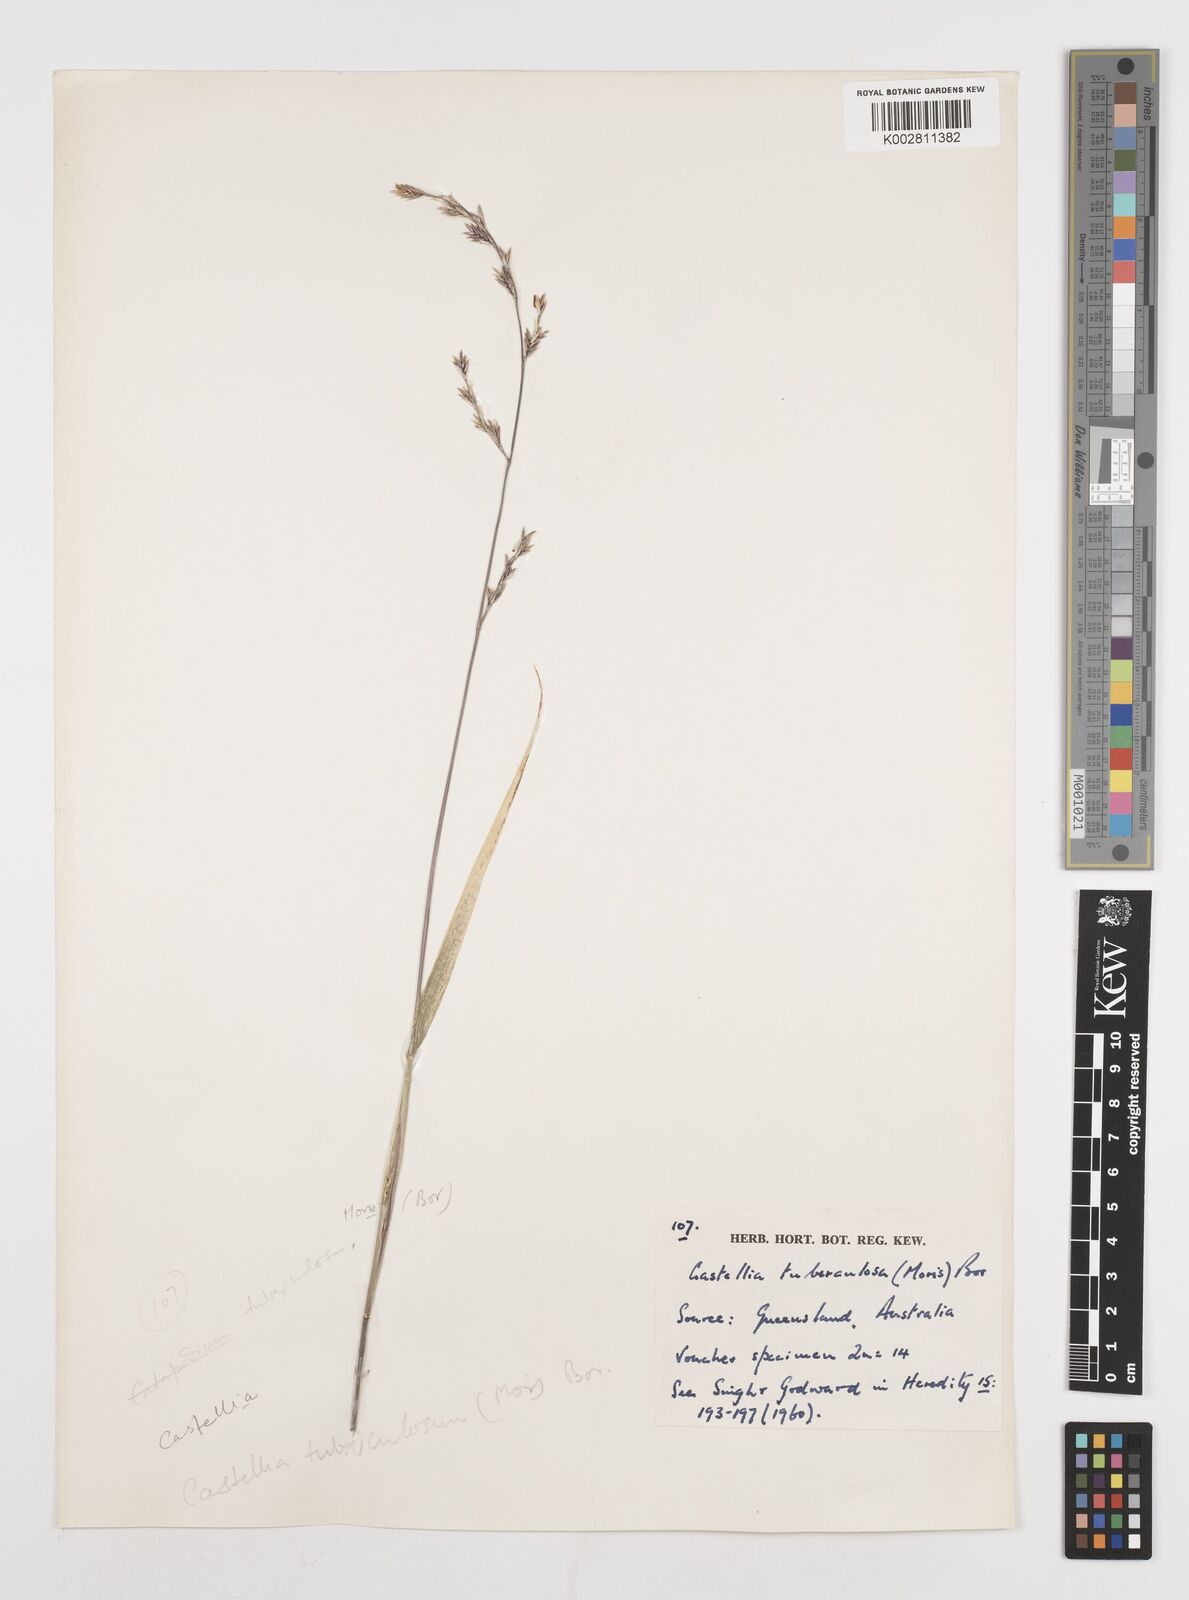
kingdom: Plantae
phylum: Tracheophyta
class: Liliopsida
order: Poales
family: Poaceae
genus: Castellia
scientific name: Castellia tuberculosa
